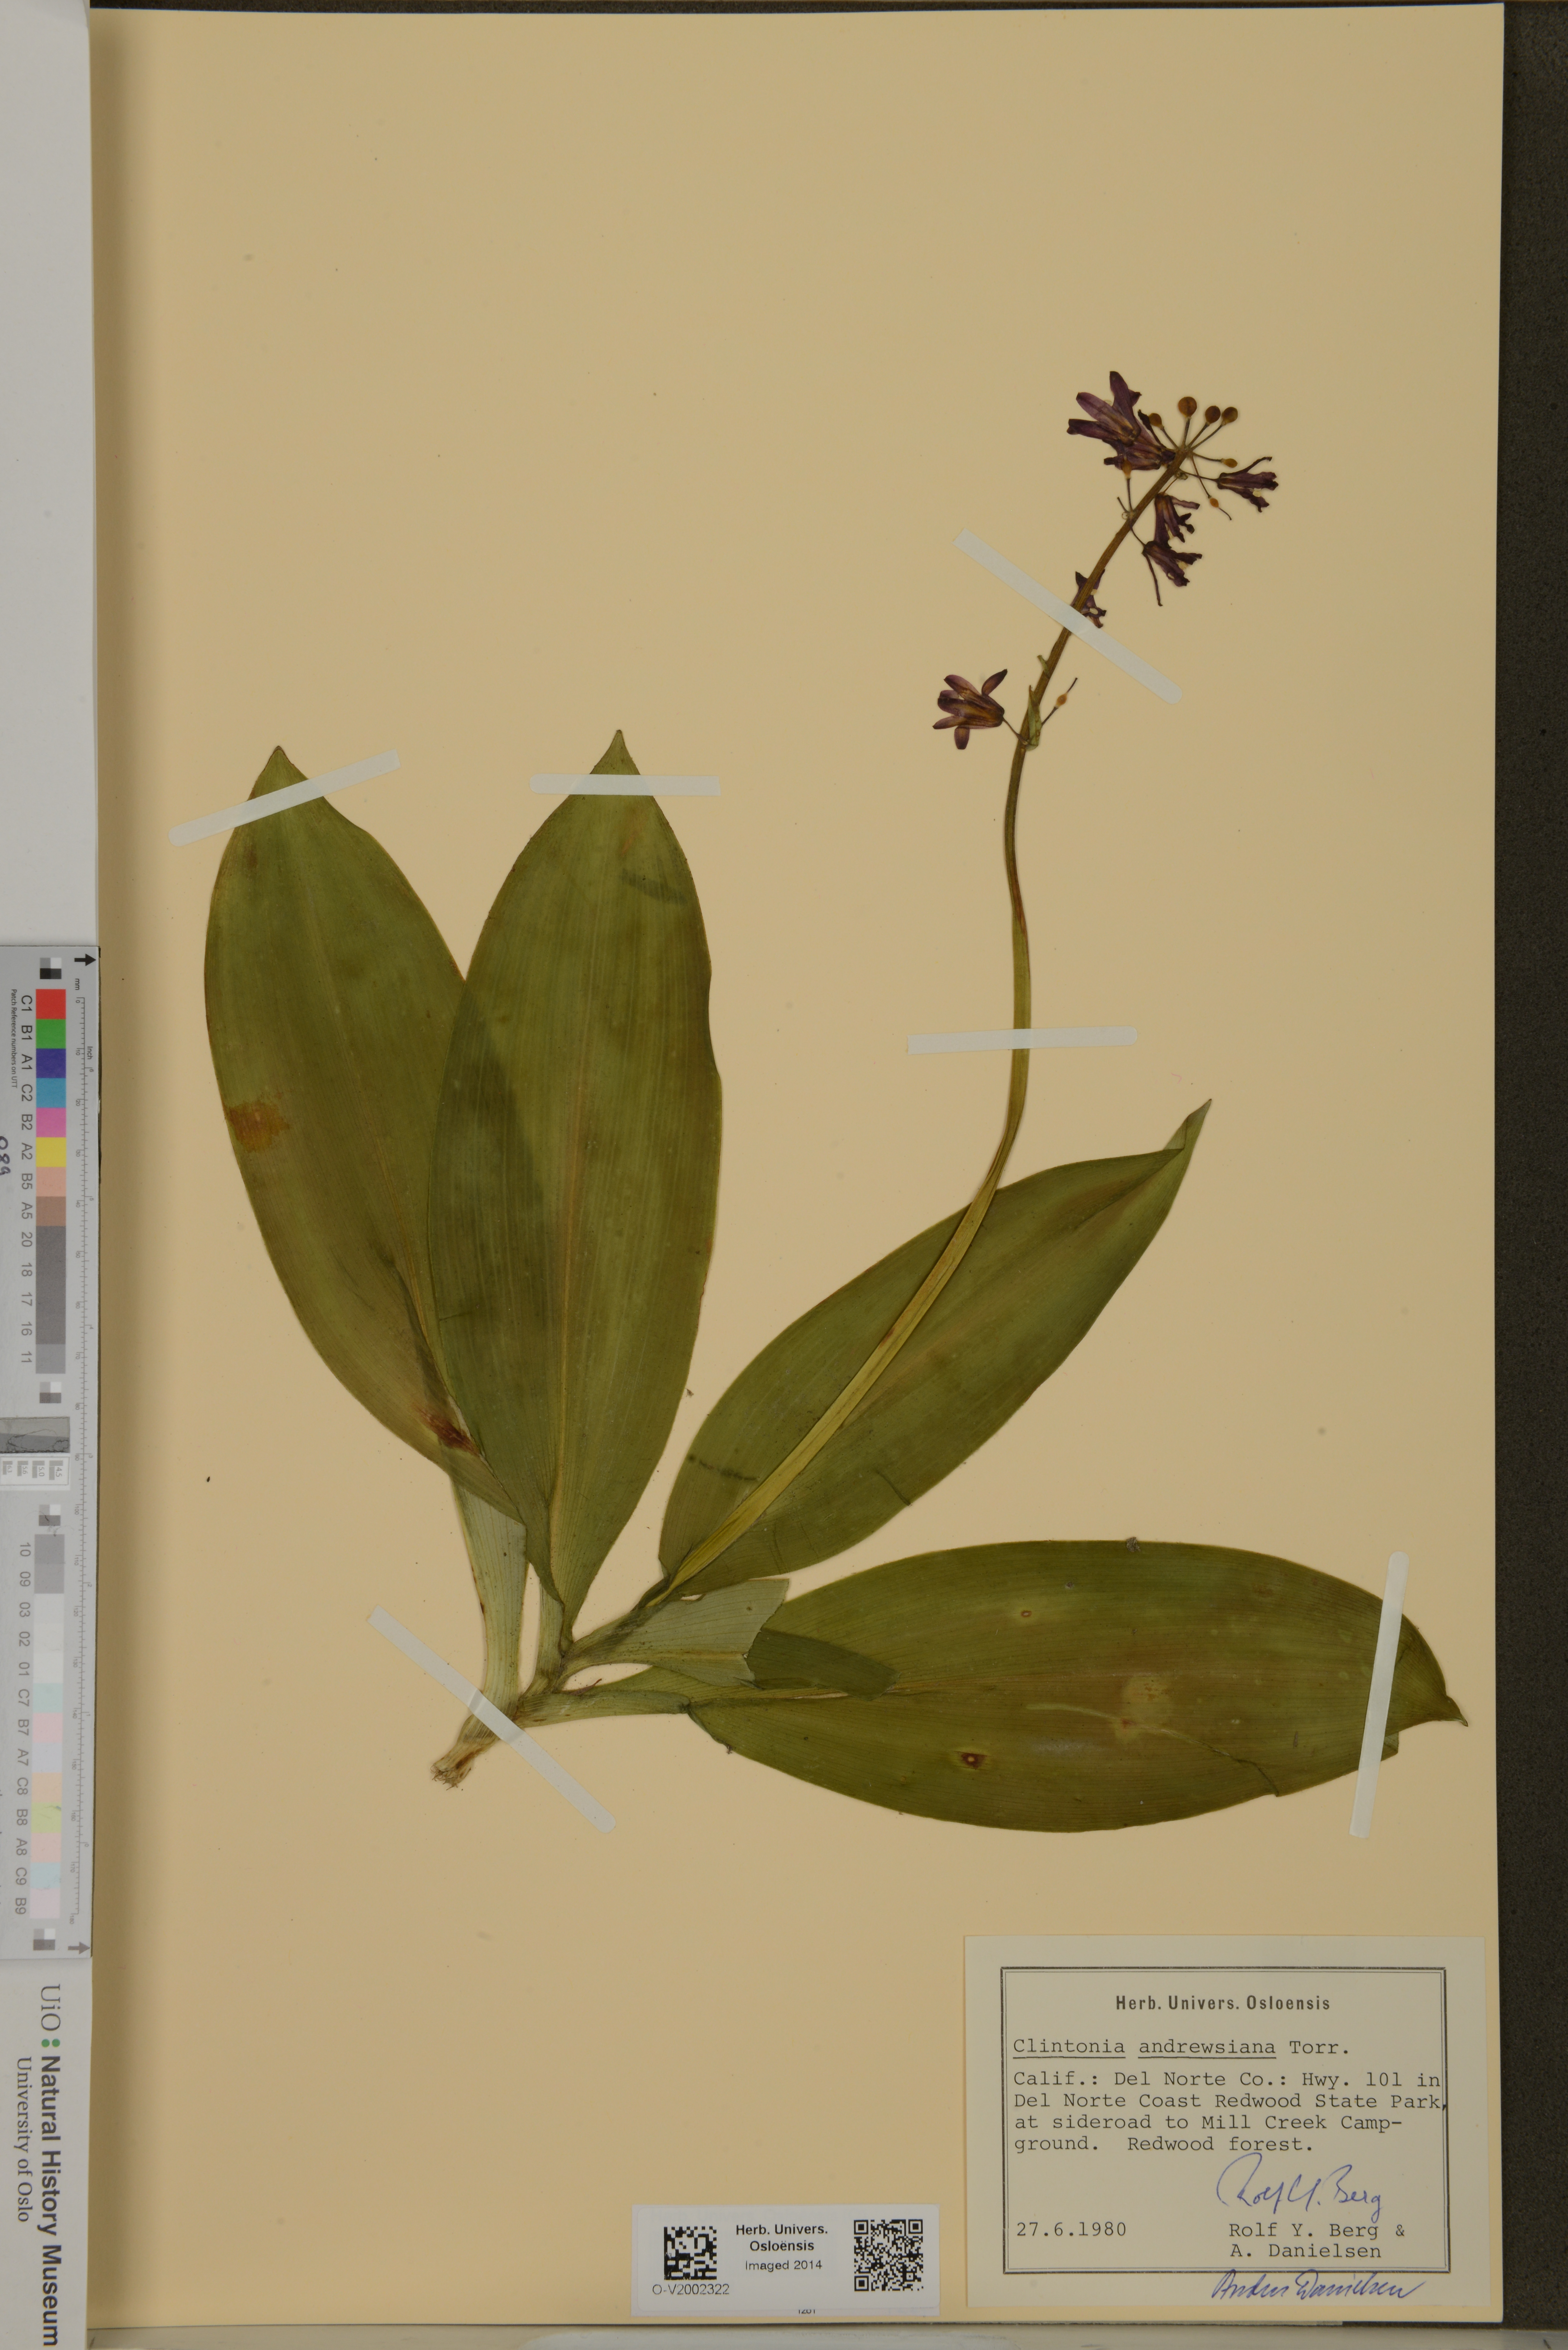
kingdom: Plantae
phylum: Tracheophyta
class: Liliopsida
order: Liliales
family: Liliaceae
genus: Clintonia
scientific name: Clintonia andrewsiana
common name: Red clintonia
